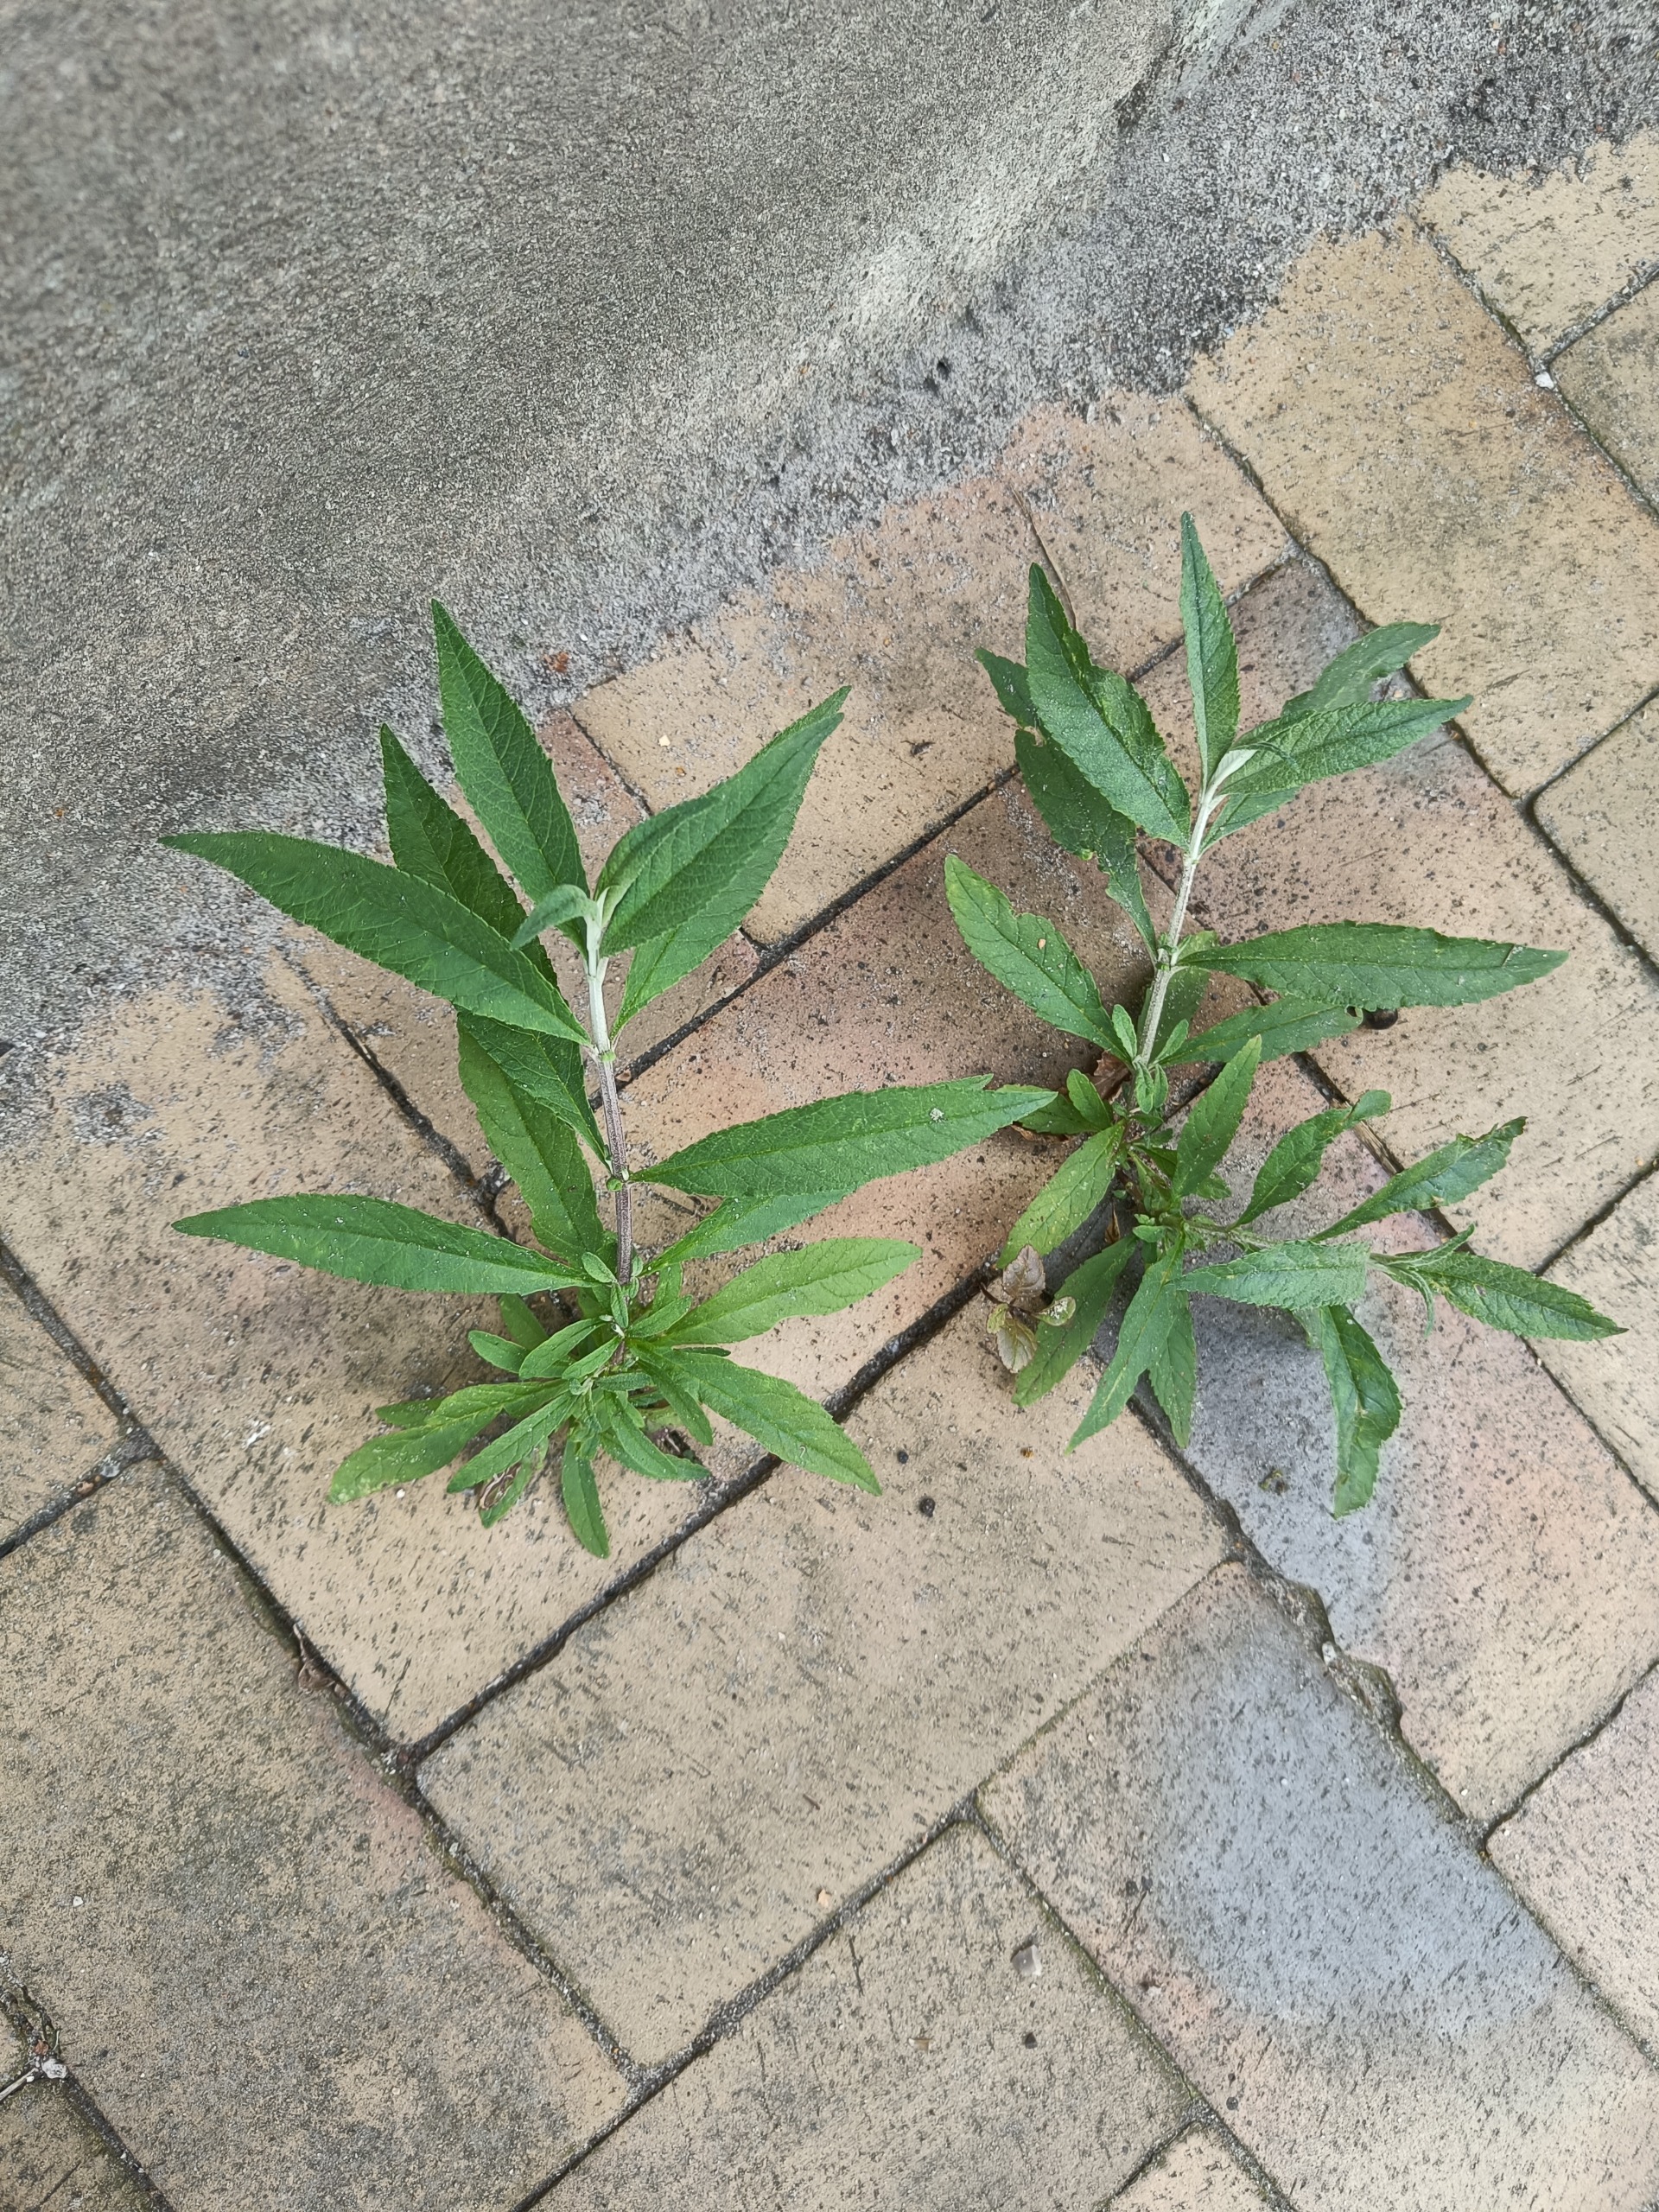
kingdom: Plantae
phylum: Tracheophyta
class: Magnoliopsida
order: Lamiales
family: Scrophulariaceae
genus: Buddleja
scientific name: Buddleja davidii
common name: Sommerfuglebusk
